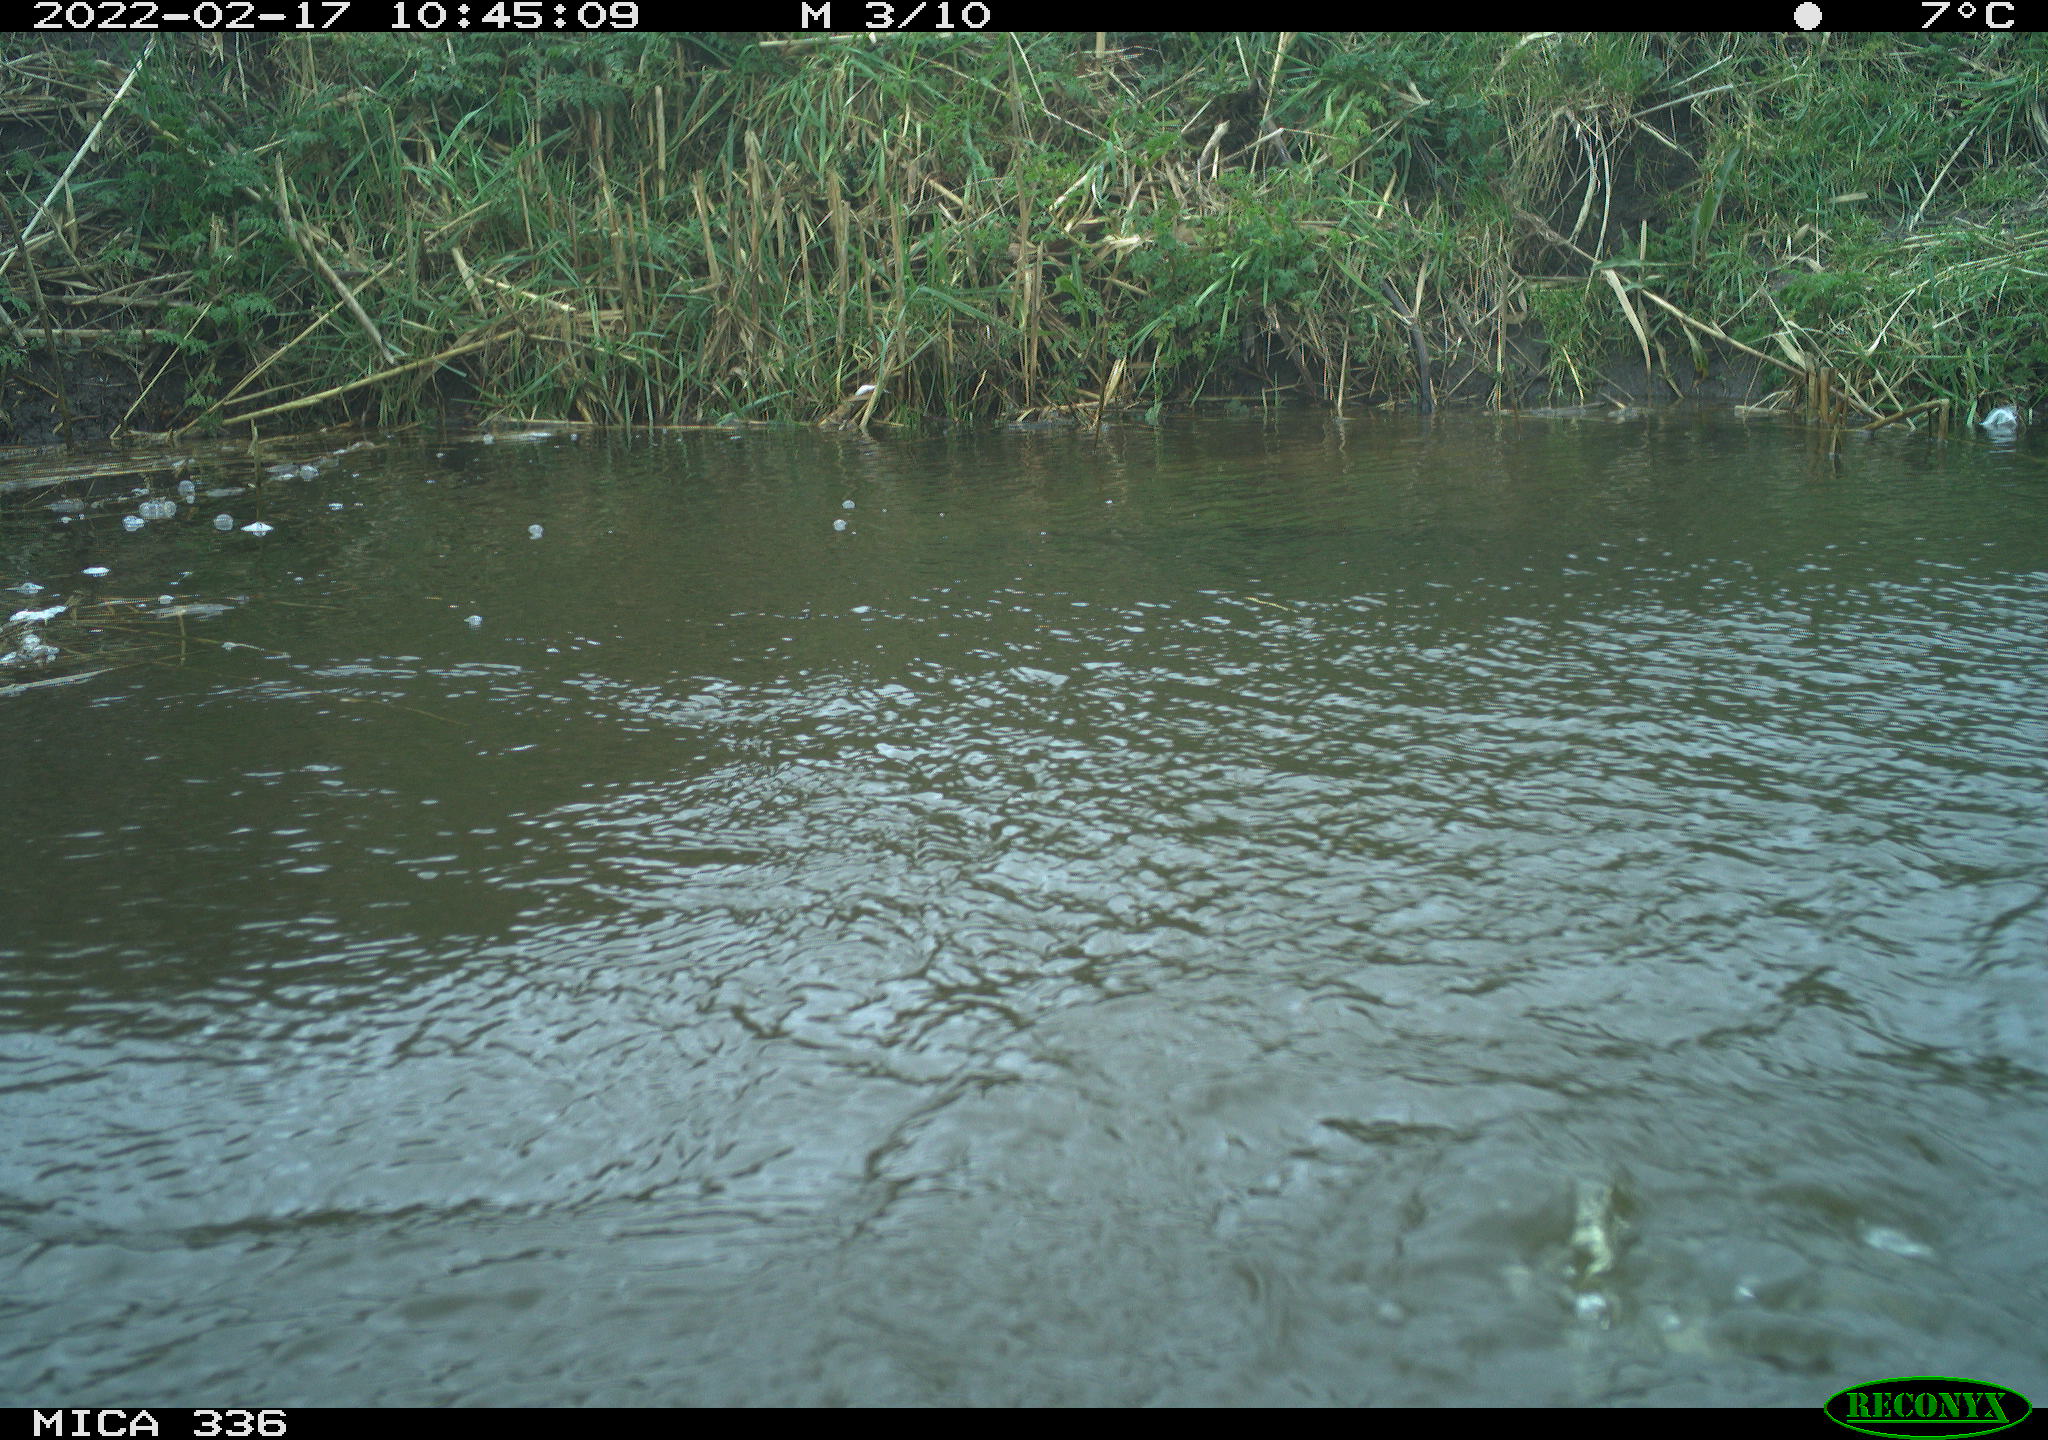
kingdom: Animalia
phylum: Chordata
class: Aves
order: Suliformes
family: Phalacrocoracidae
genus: Phalacrocorax
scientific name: Phalacrocorax carbo
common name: Great cormorant
